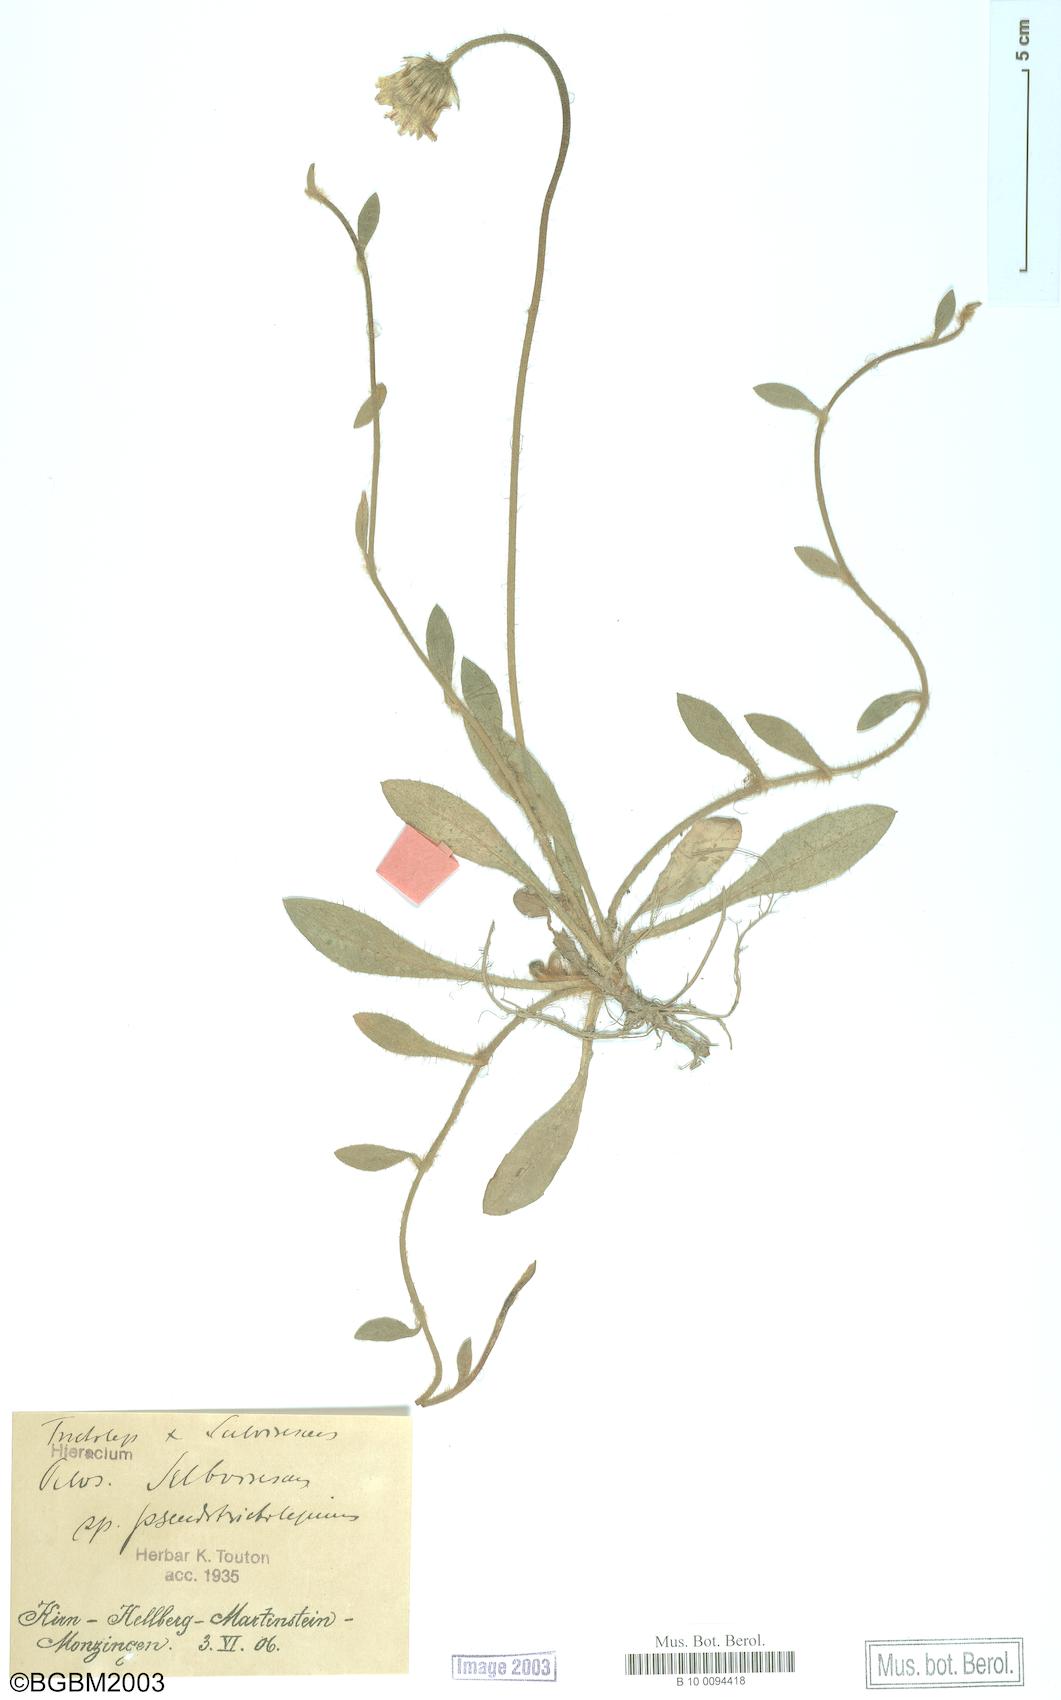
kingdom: Plantae
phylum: Tracheophyta
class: Magnoliopsida
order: Asterales
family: Asteraceae
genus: Pilosella
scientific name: Pilosella officinarum
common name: Mouse-ear hawkweed
